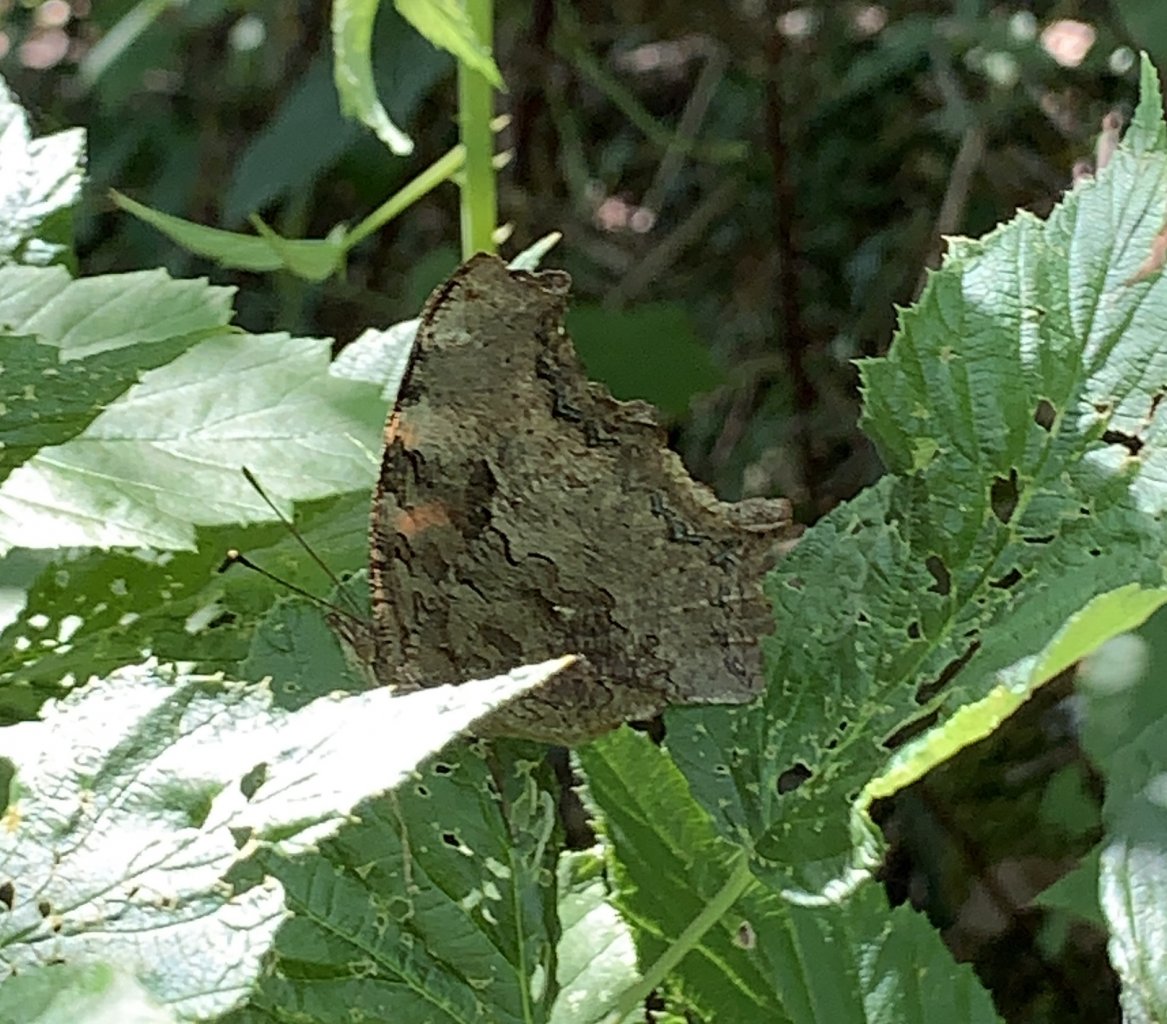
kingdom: Animalia
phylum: Arthropoda
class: Insecta
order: Lepidoptera
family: Nymphalidae
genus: Polygonia
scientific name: Polygonia vaualbum
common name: Compton Tortoiseshell
